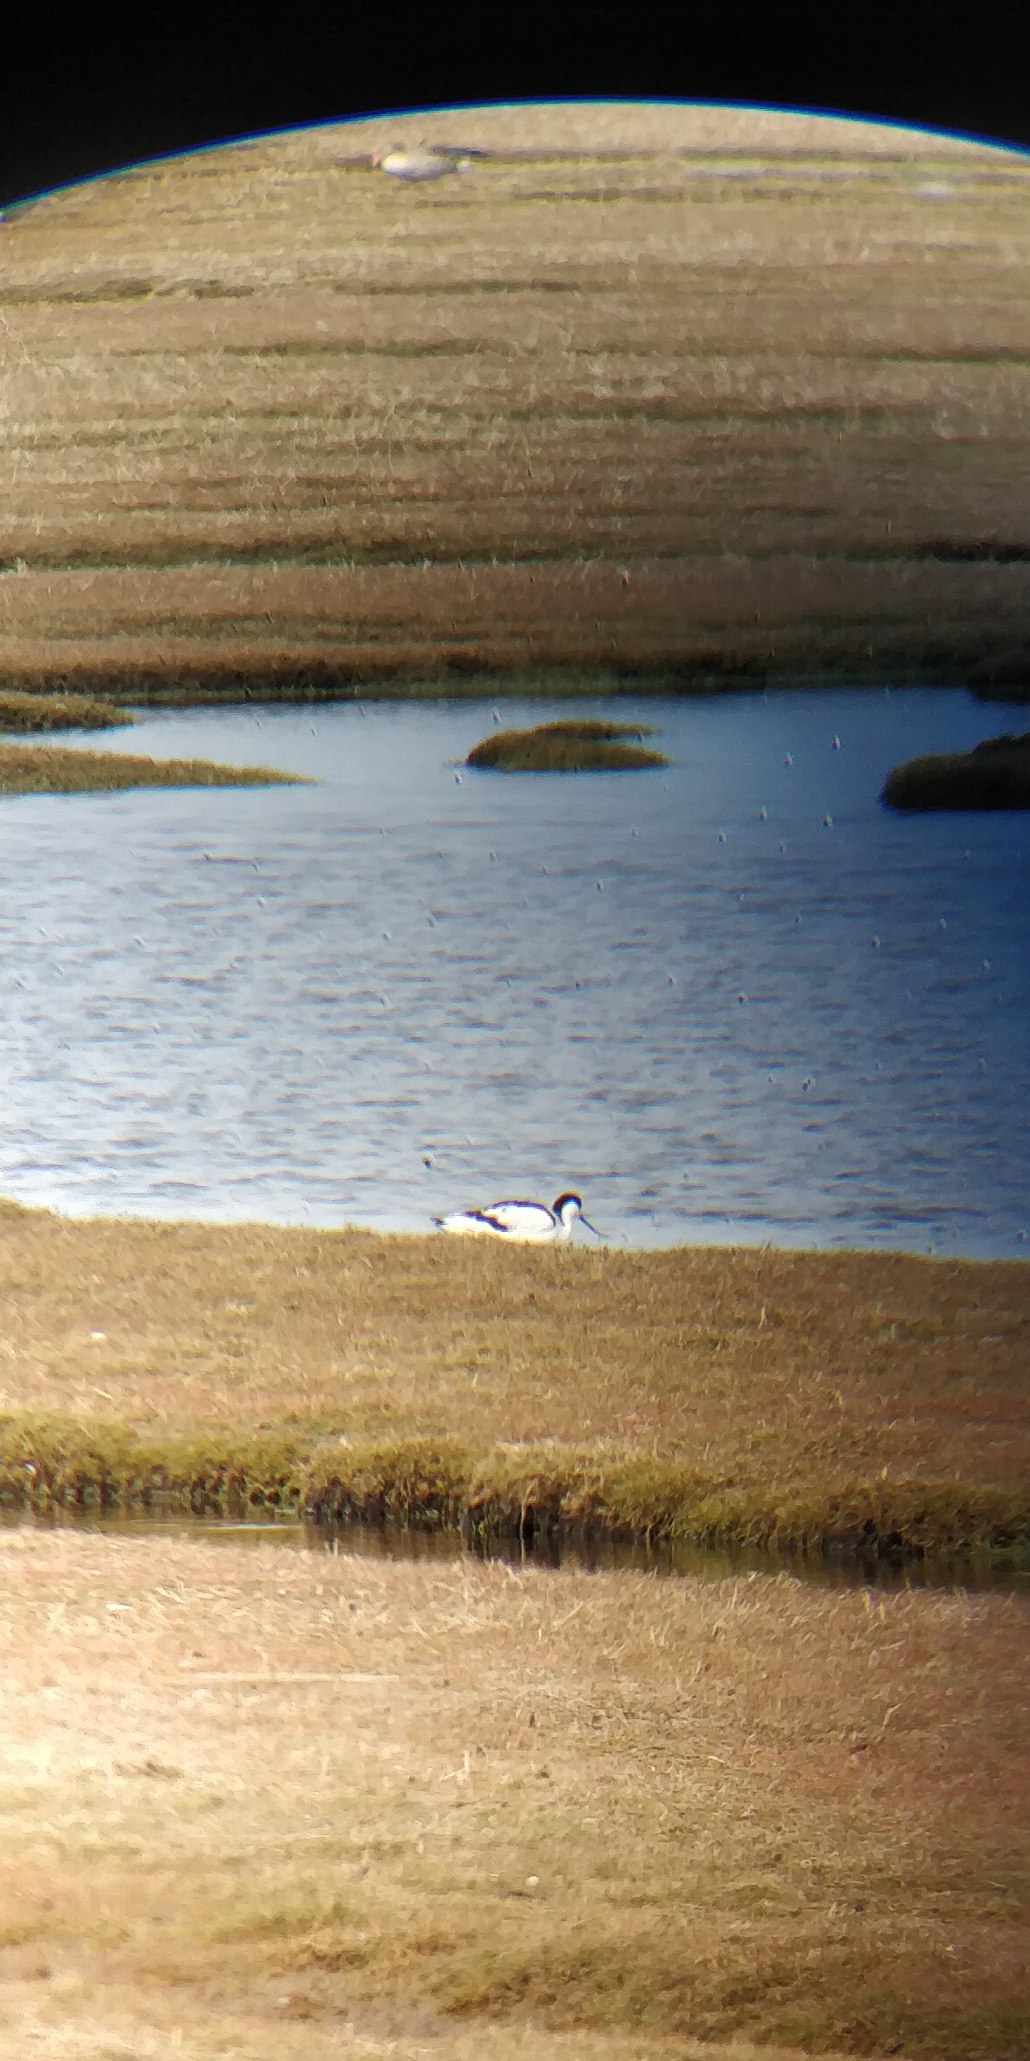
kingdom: Animalia
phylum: Chordata
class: Aves
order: Charadriiformes
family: Recurvirostridae
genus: Recurvirostra
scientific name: Recurvirostra avosetta
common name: Klyde
